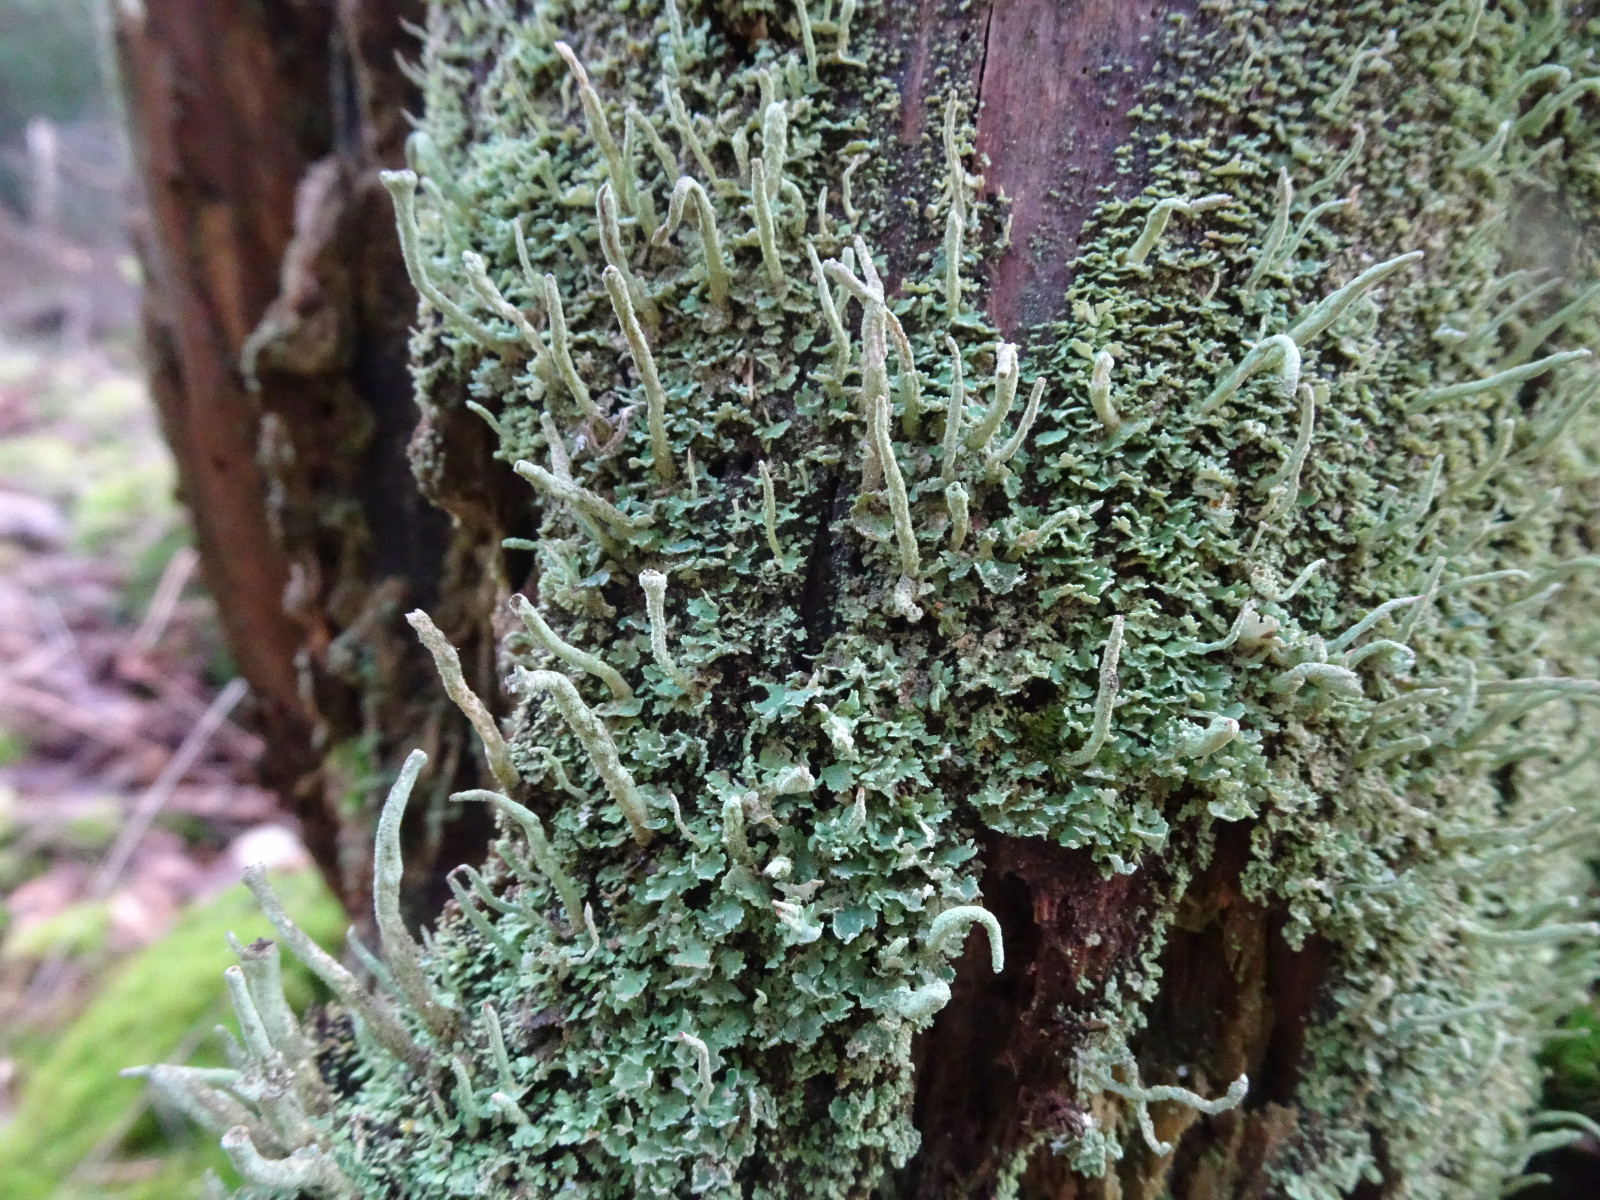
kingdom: Fungi
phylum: Ascomycota
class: Lecanoromycetes
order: Lecanorales
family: Cladoniaceae
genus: Cladonia
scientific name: Cladonia ochrochlora
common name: stød-bægerlav
